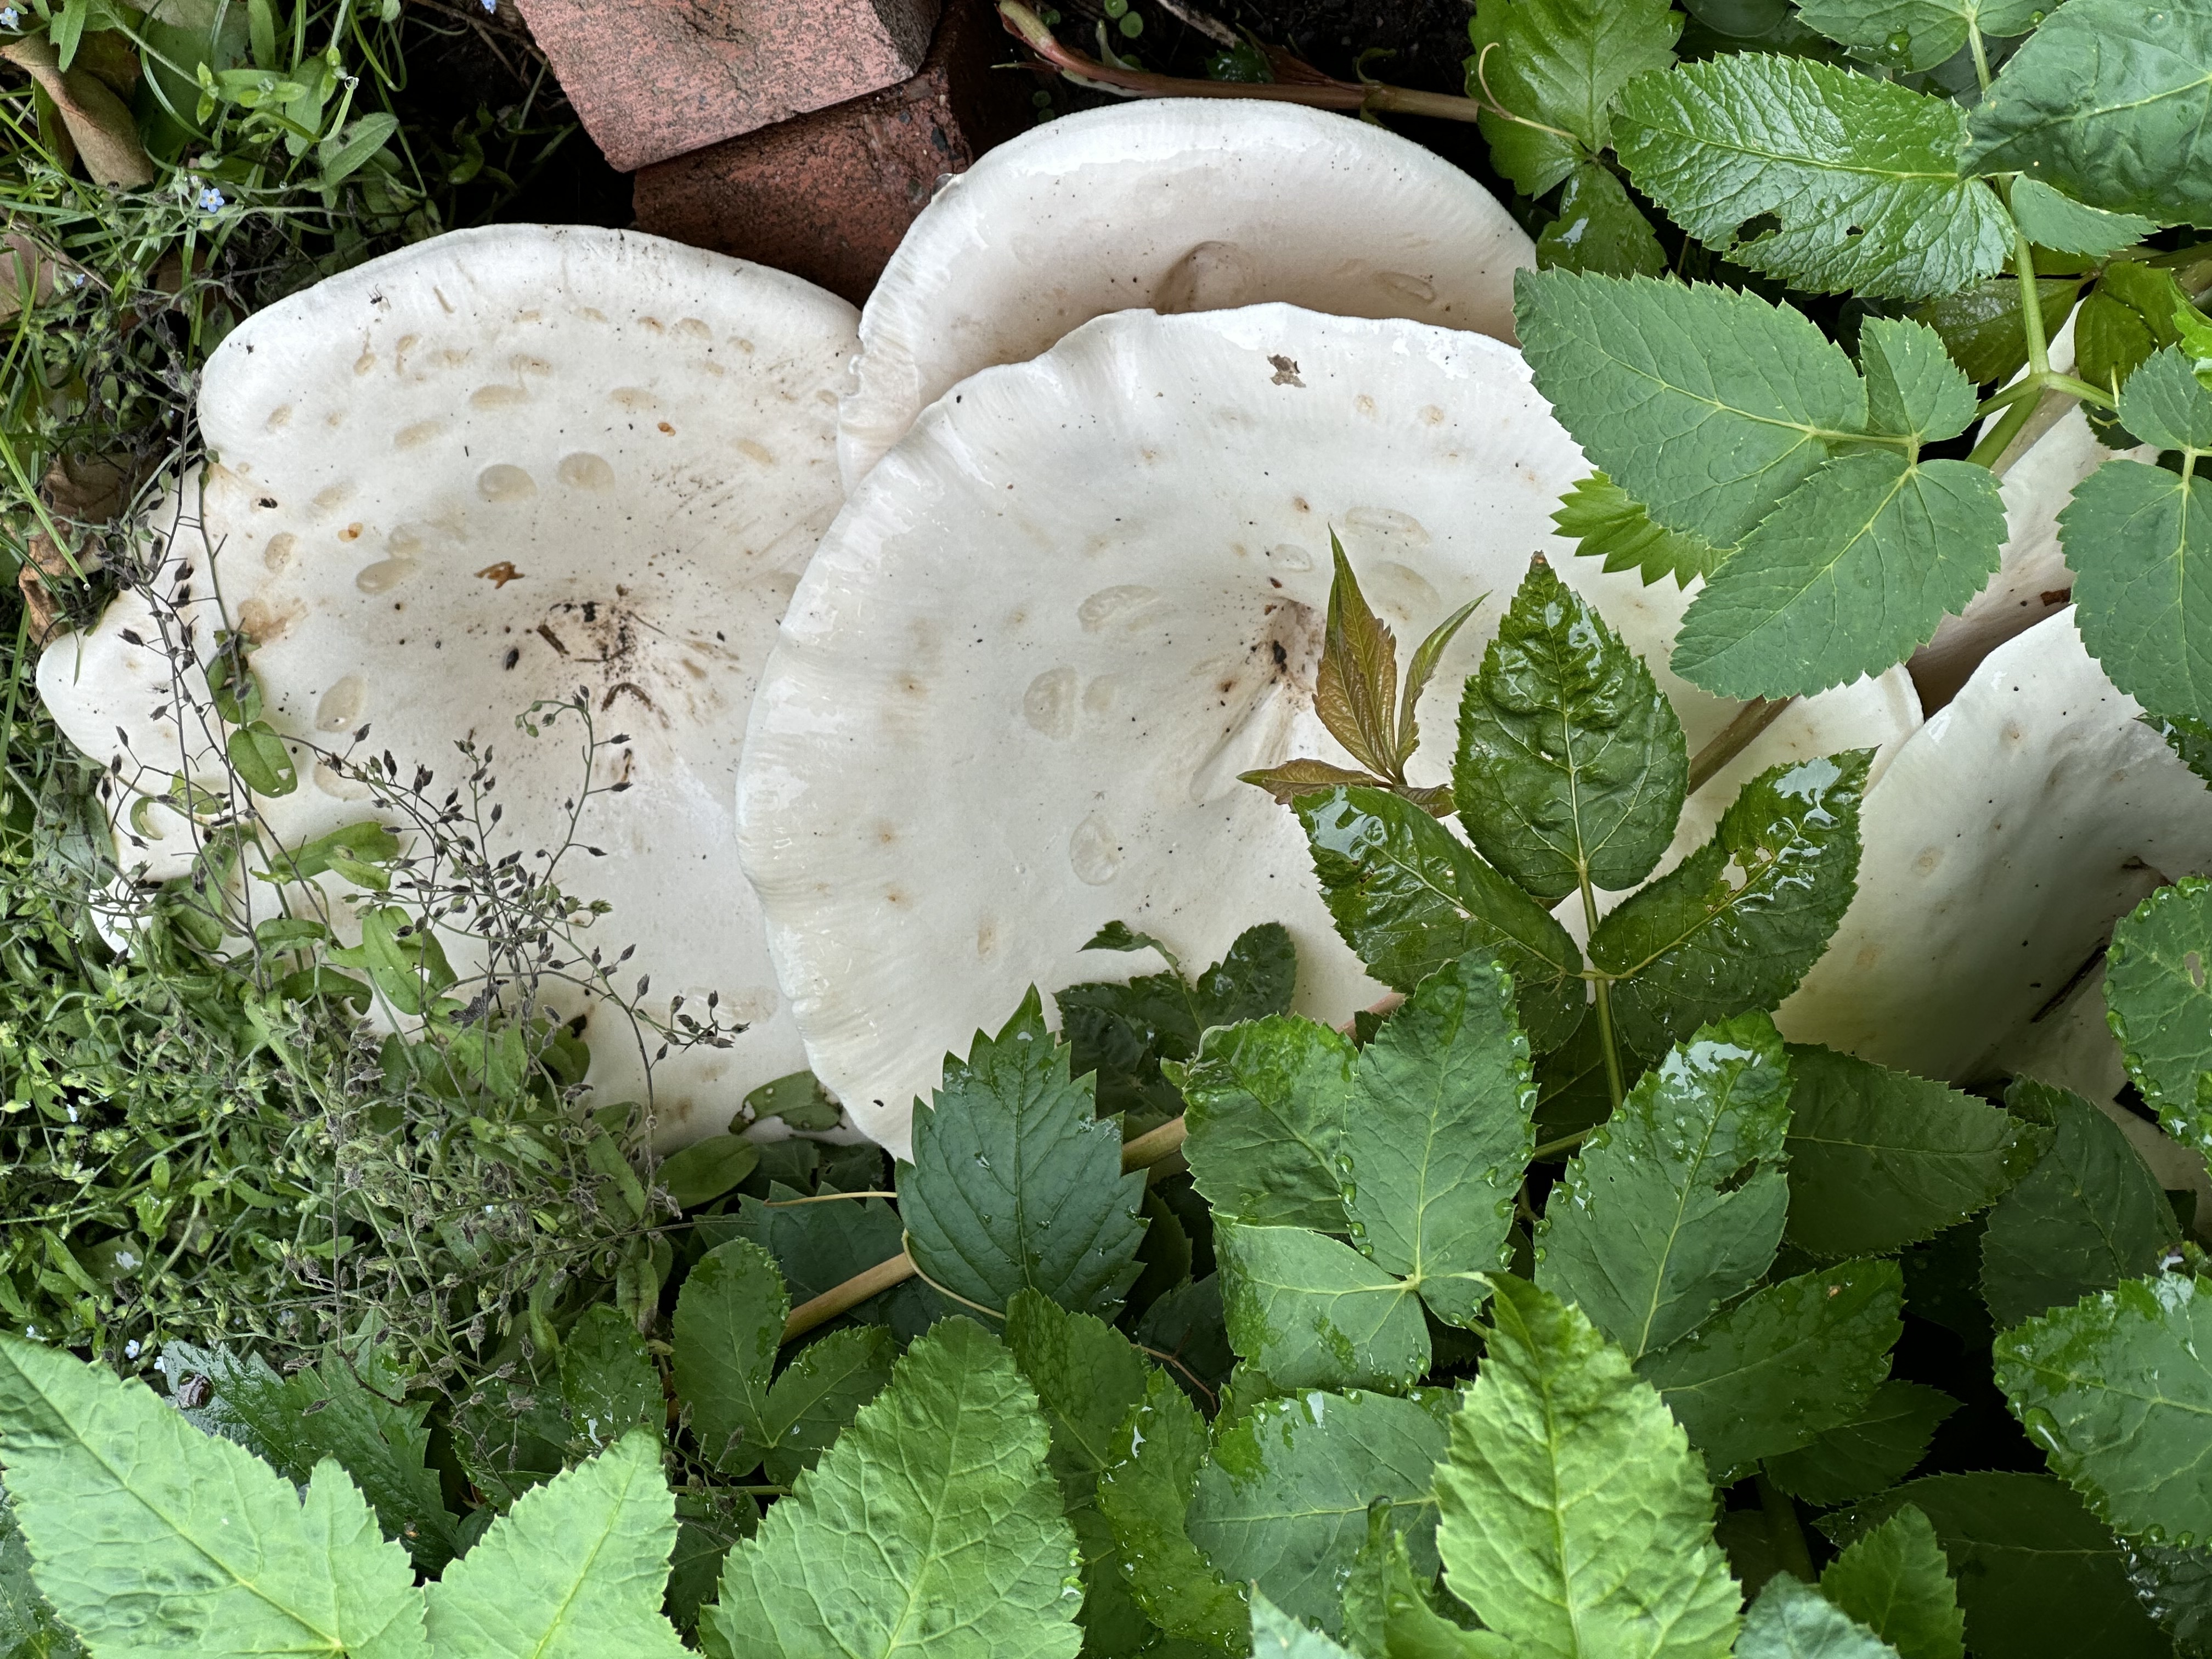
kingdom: Fungi
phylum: Basidiomycota
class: Agaricomycetes
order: Agaricales
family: Tricholomataceae
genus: Infundibulicybe
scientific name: Infundibulicybe geotropa
